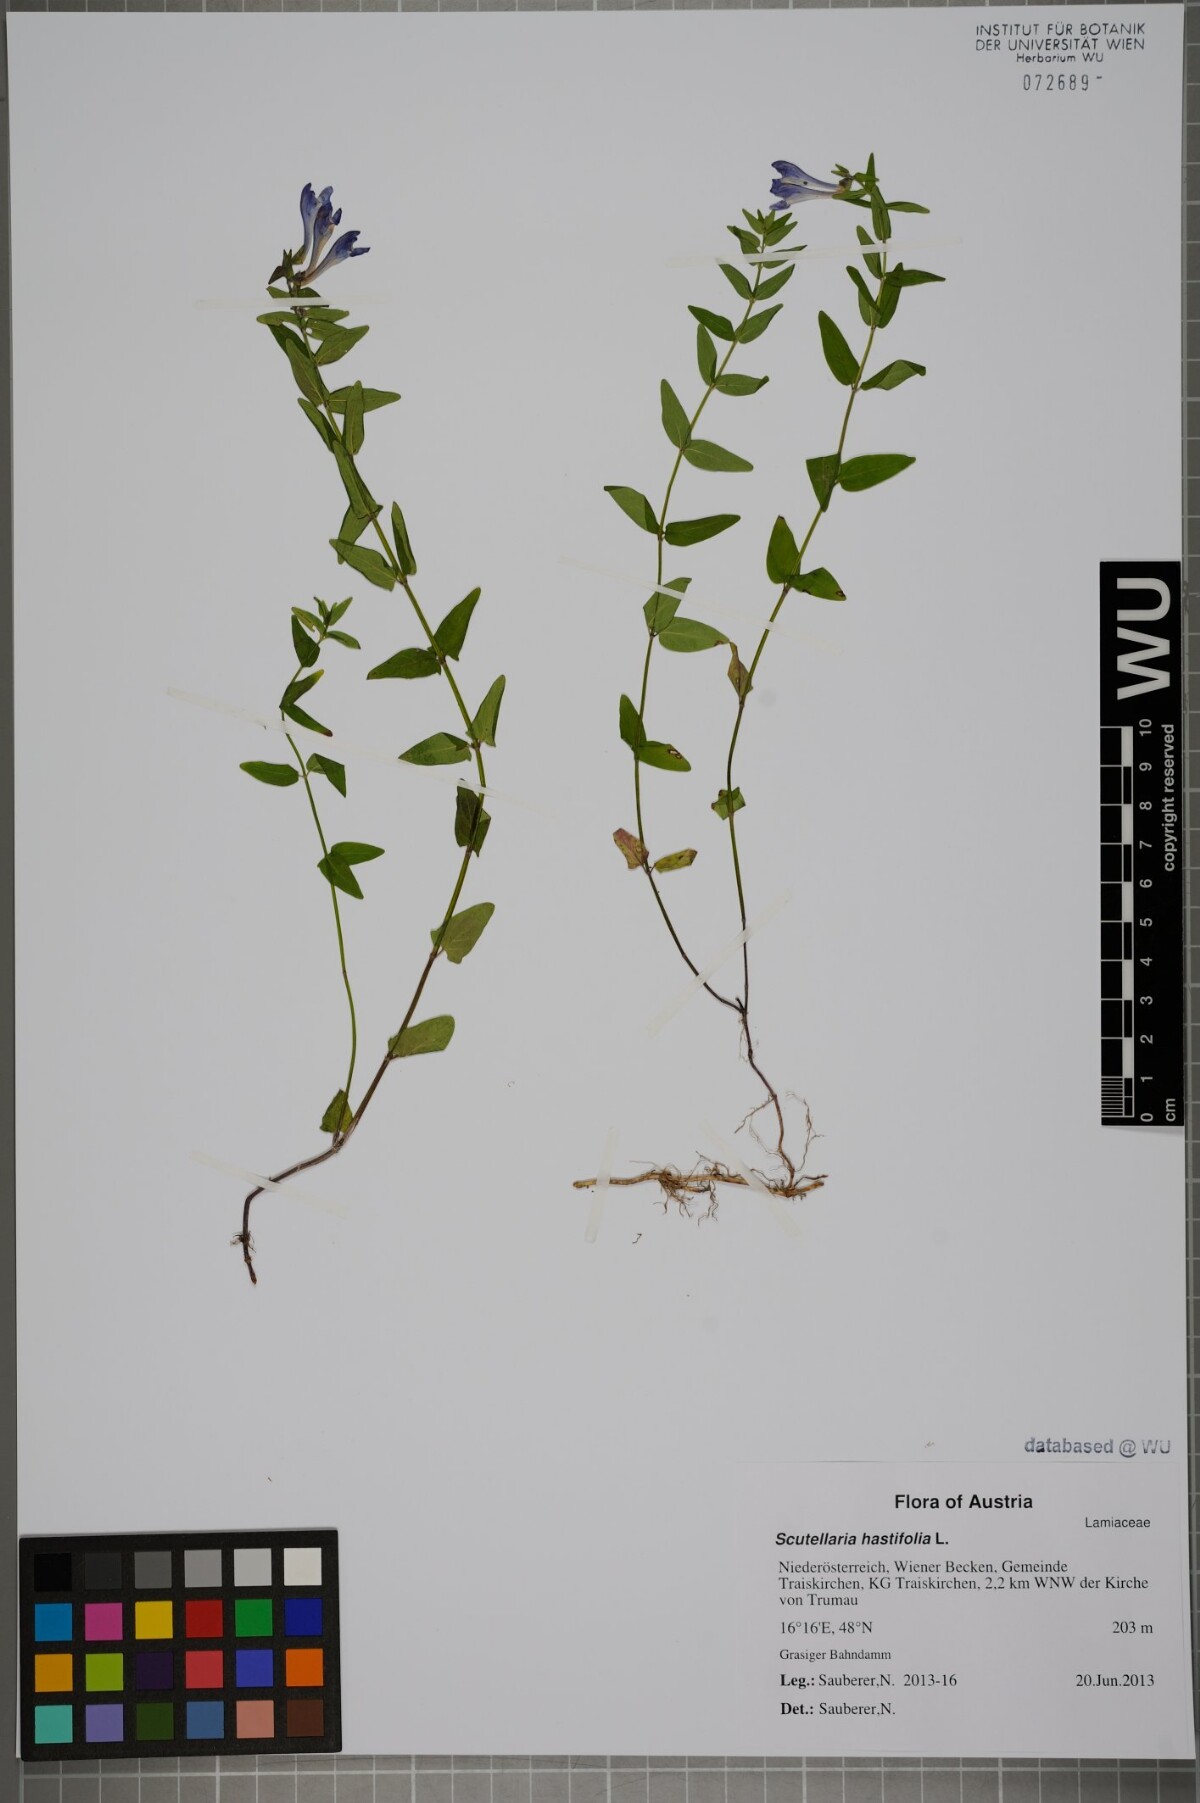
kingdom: Plantae
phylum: Tracheophyta
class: Magnoliopsida
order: Lamiales
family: Lamiaceae
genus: Scutellaria
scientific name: Scutellaria hastifolia
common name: Norfolk skullcap
